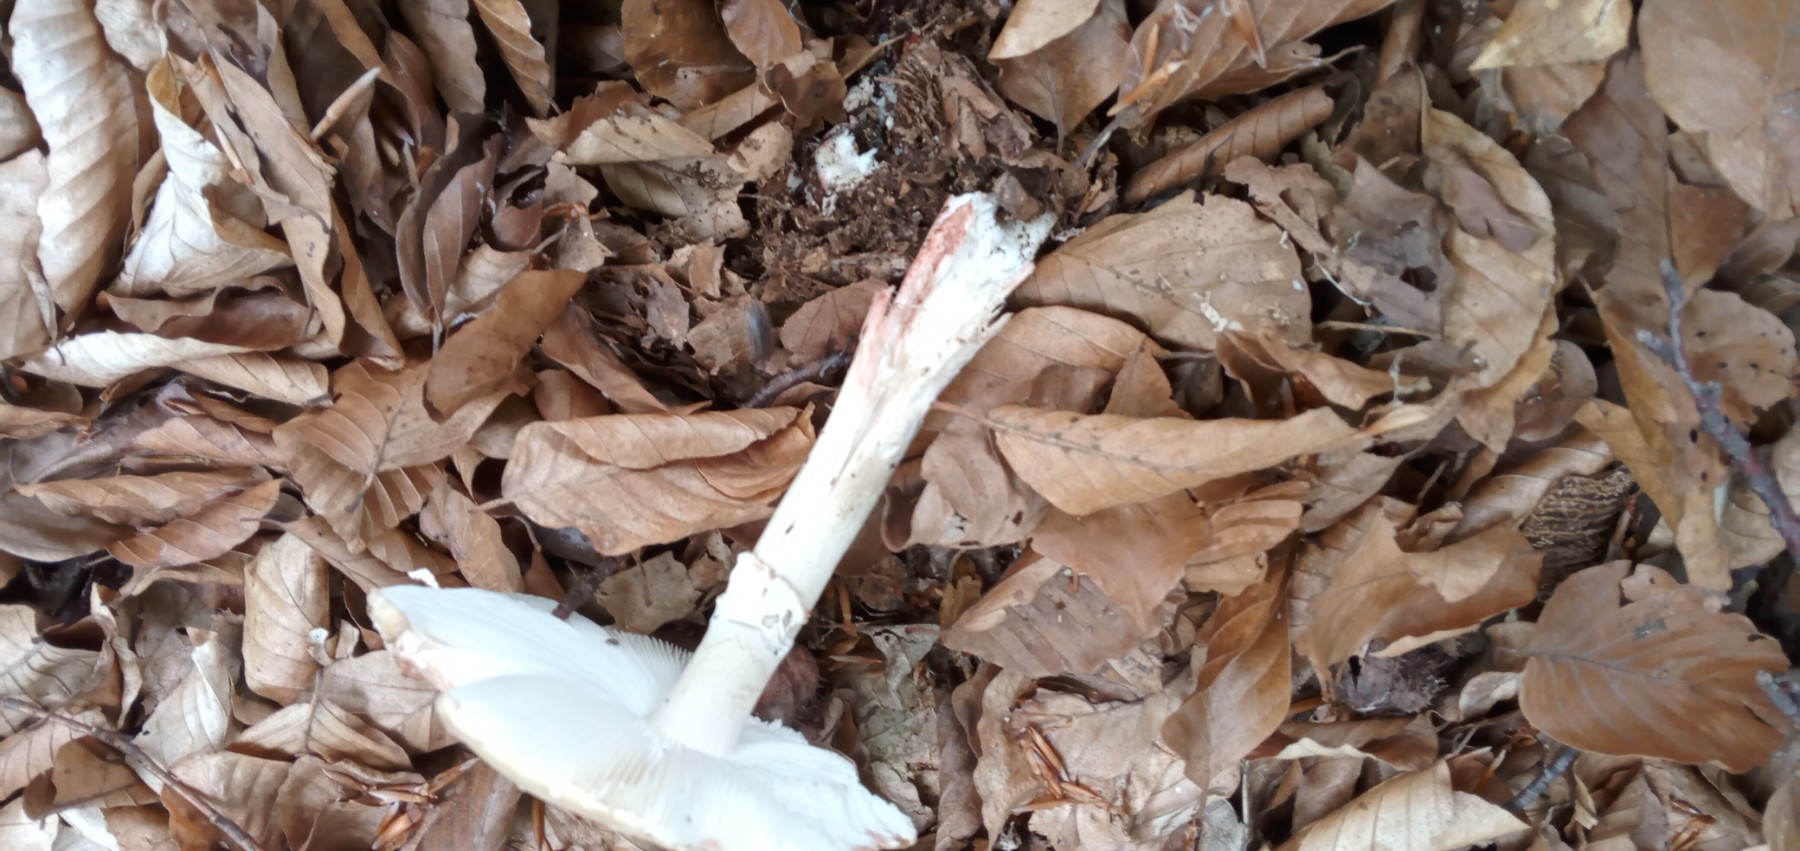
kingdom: Fungi
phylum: Basidiomycota
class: Agaricomycetes
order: Agaricales
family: Amanitaceae
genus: Amanita
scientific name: Amanita rubescens
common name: rødmende fluesvamp
